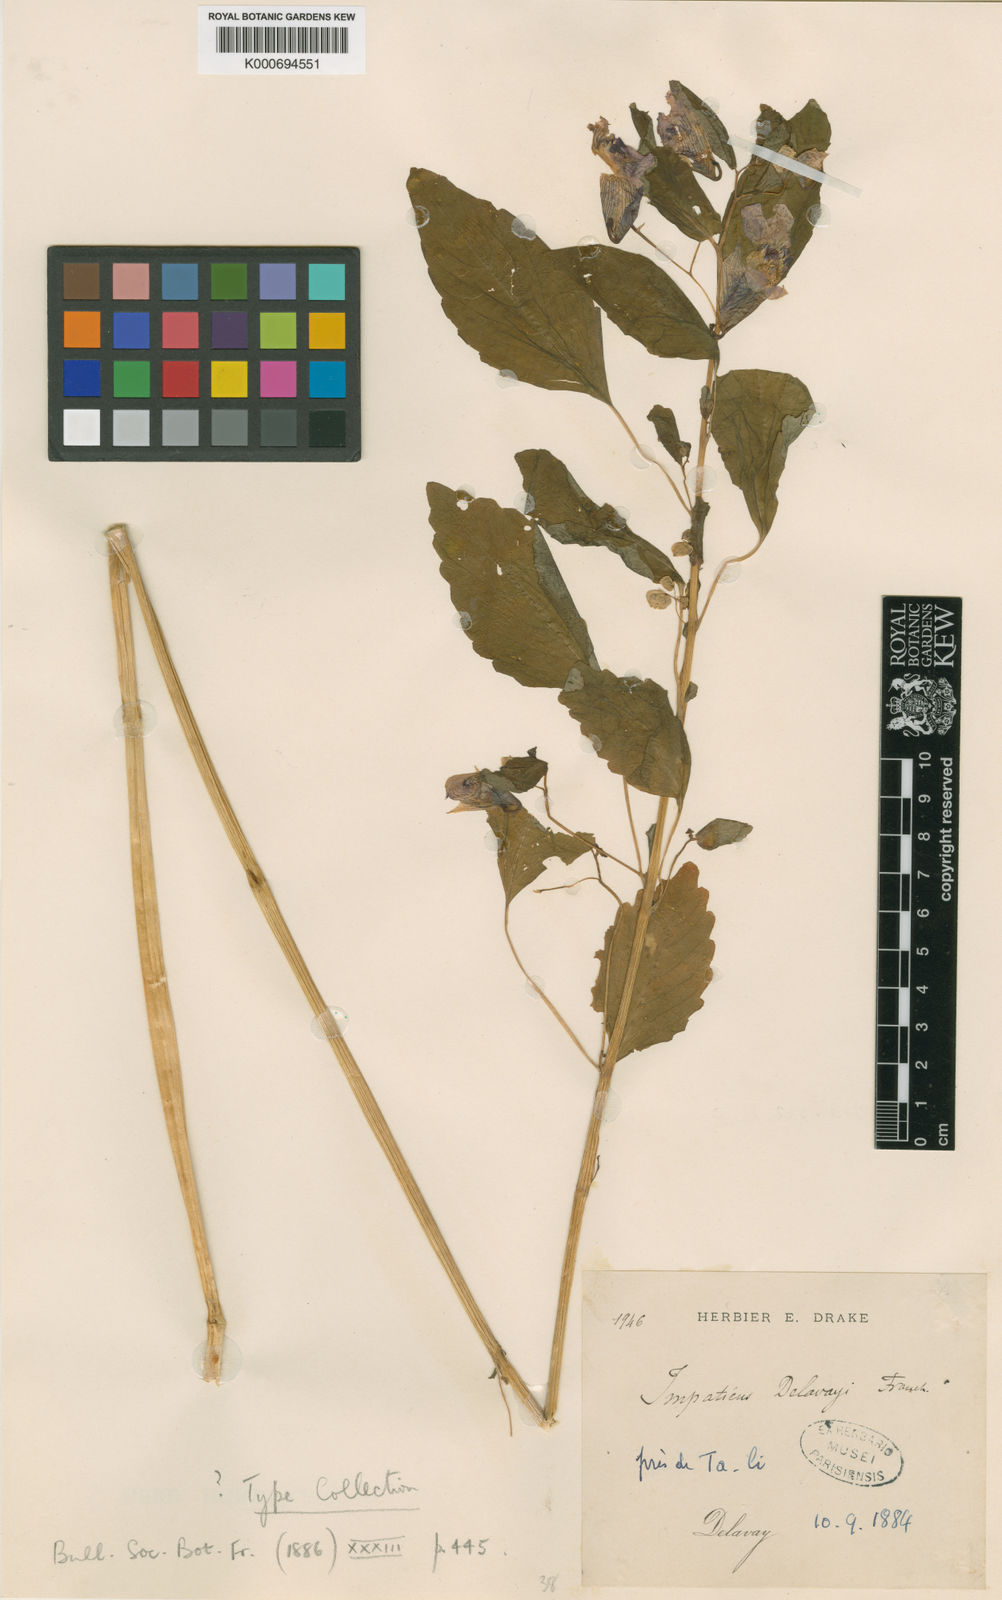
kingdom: Plantae
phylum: Tracheophyta
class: Magnoliopsida
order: Ericales
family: Balsaminaceae
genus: Impatiens
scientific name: Impatiens delavayi
